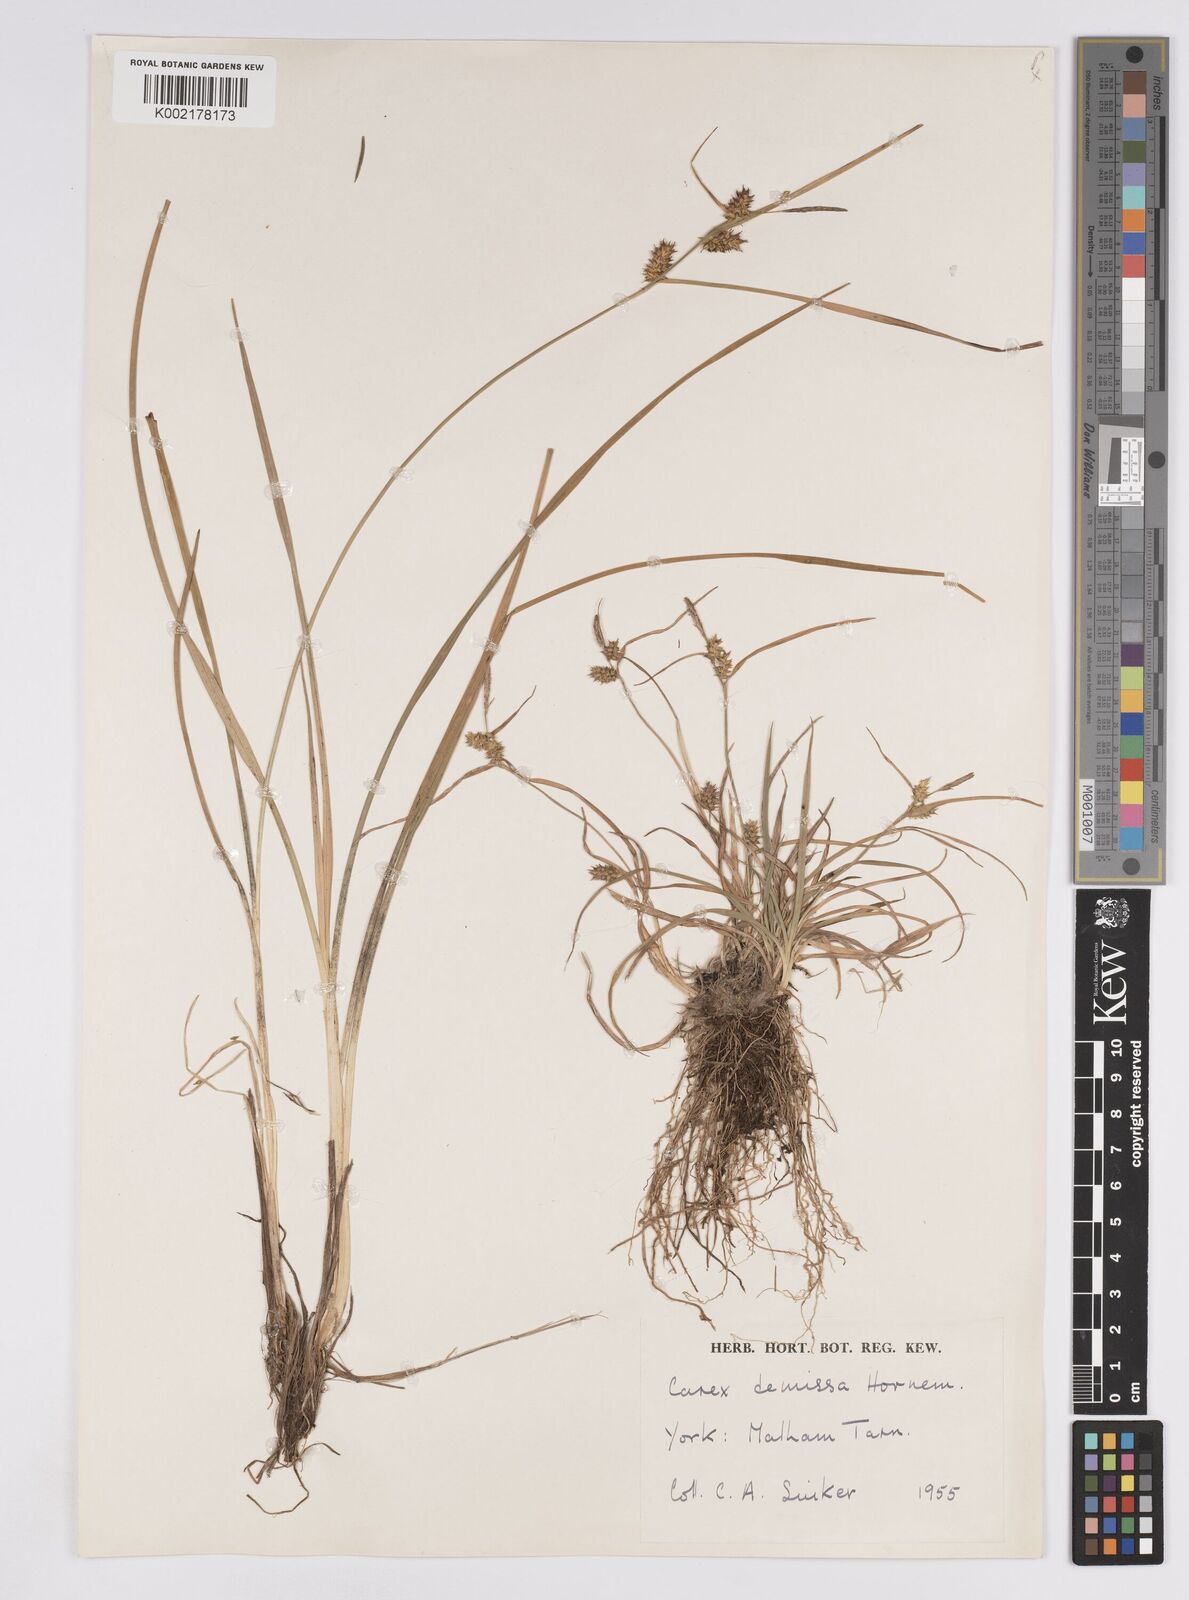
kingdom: Plantae
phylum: Tracheophyta
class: Liliopsida
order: Poales
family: Cyperaceae
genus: Carex
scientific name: Carex demissa
